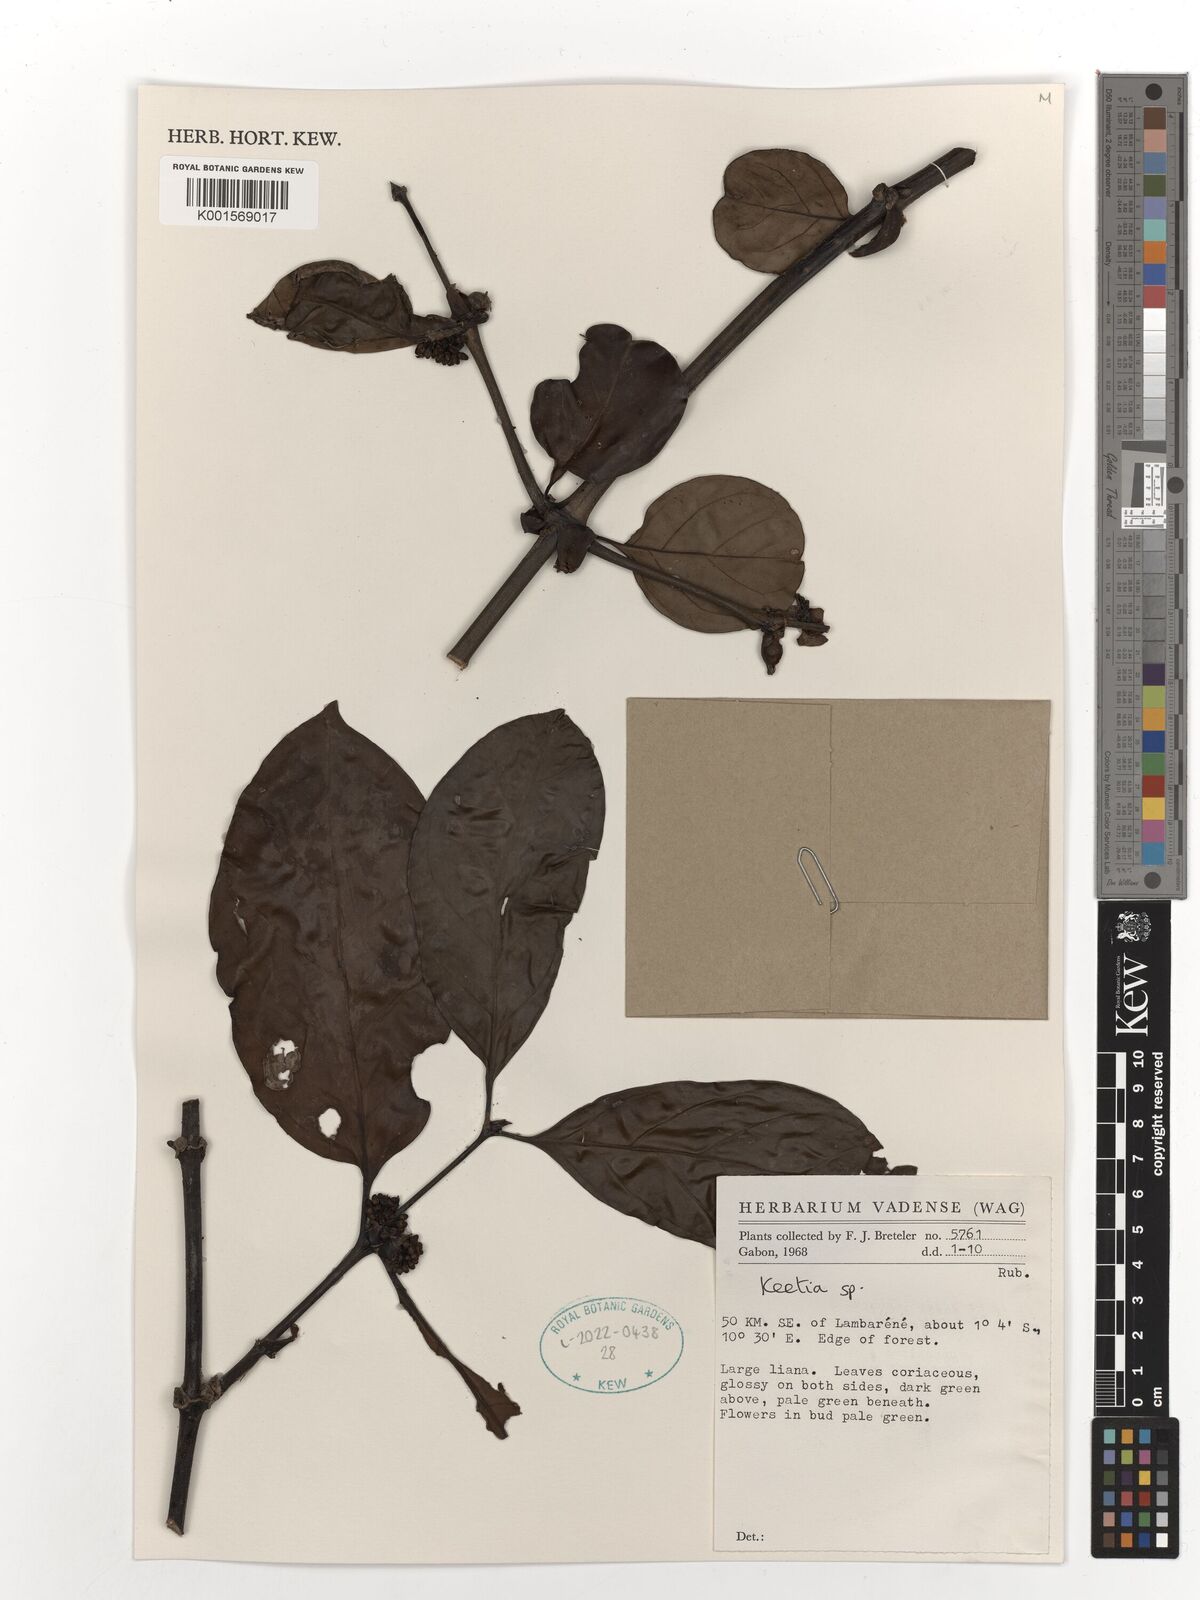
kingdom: Plantae
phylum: Tracheophyta
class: Magnoliopsida
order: Gentianales
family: Rubiaceae
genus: Keetia
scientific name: Keetia
